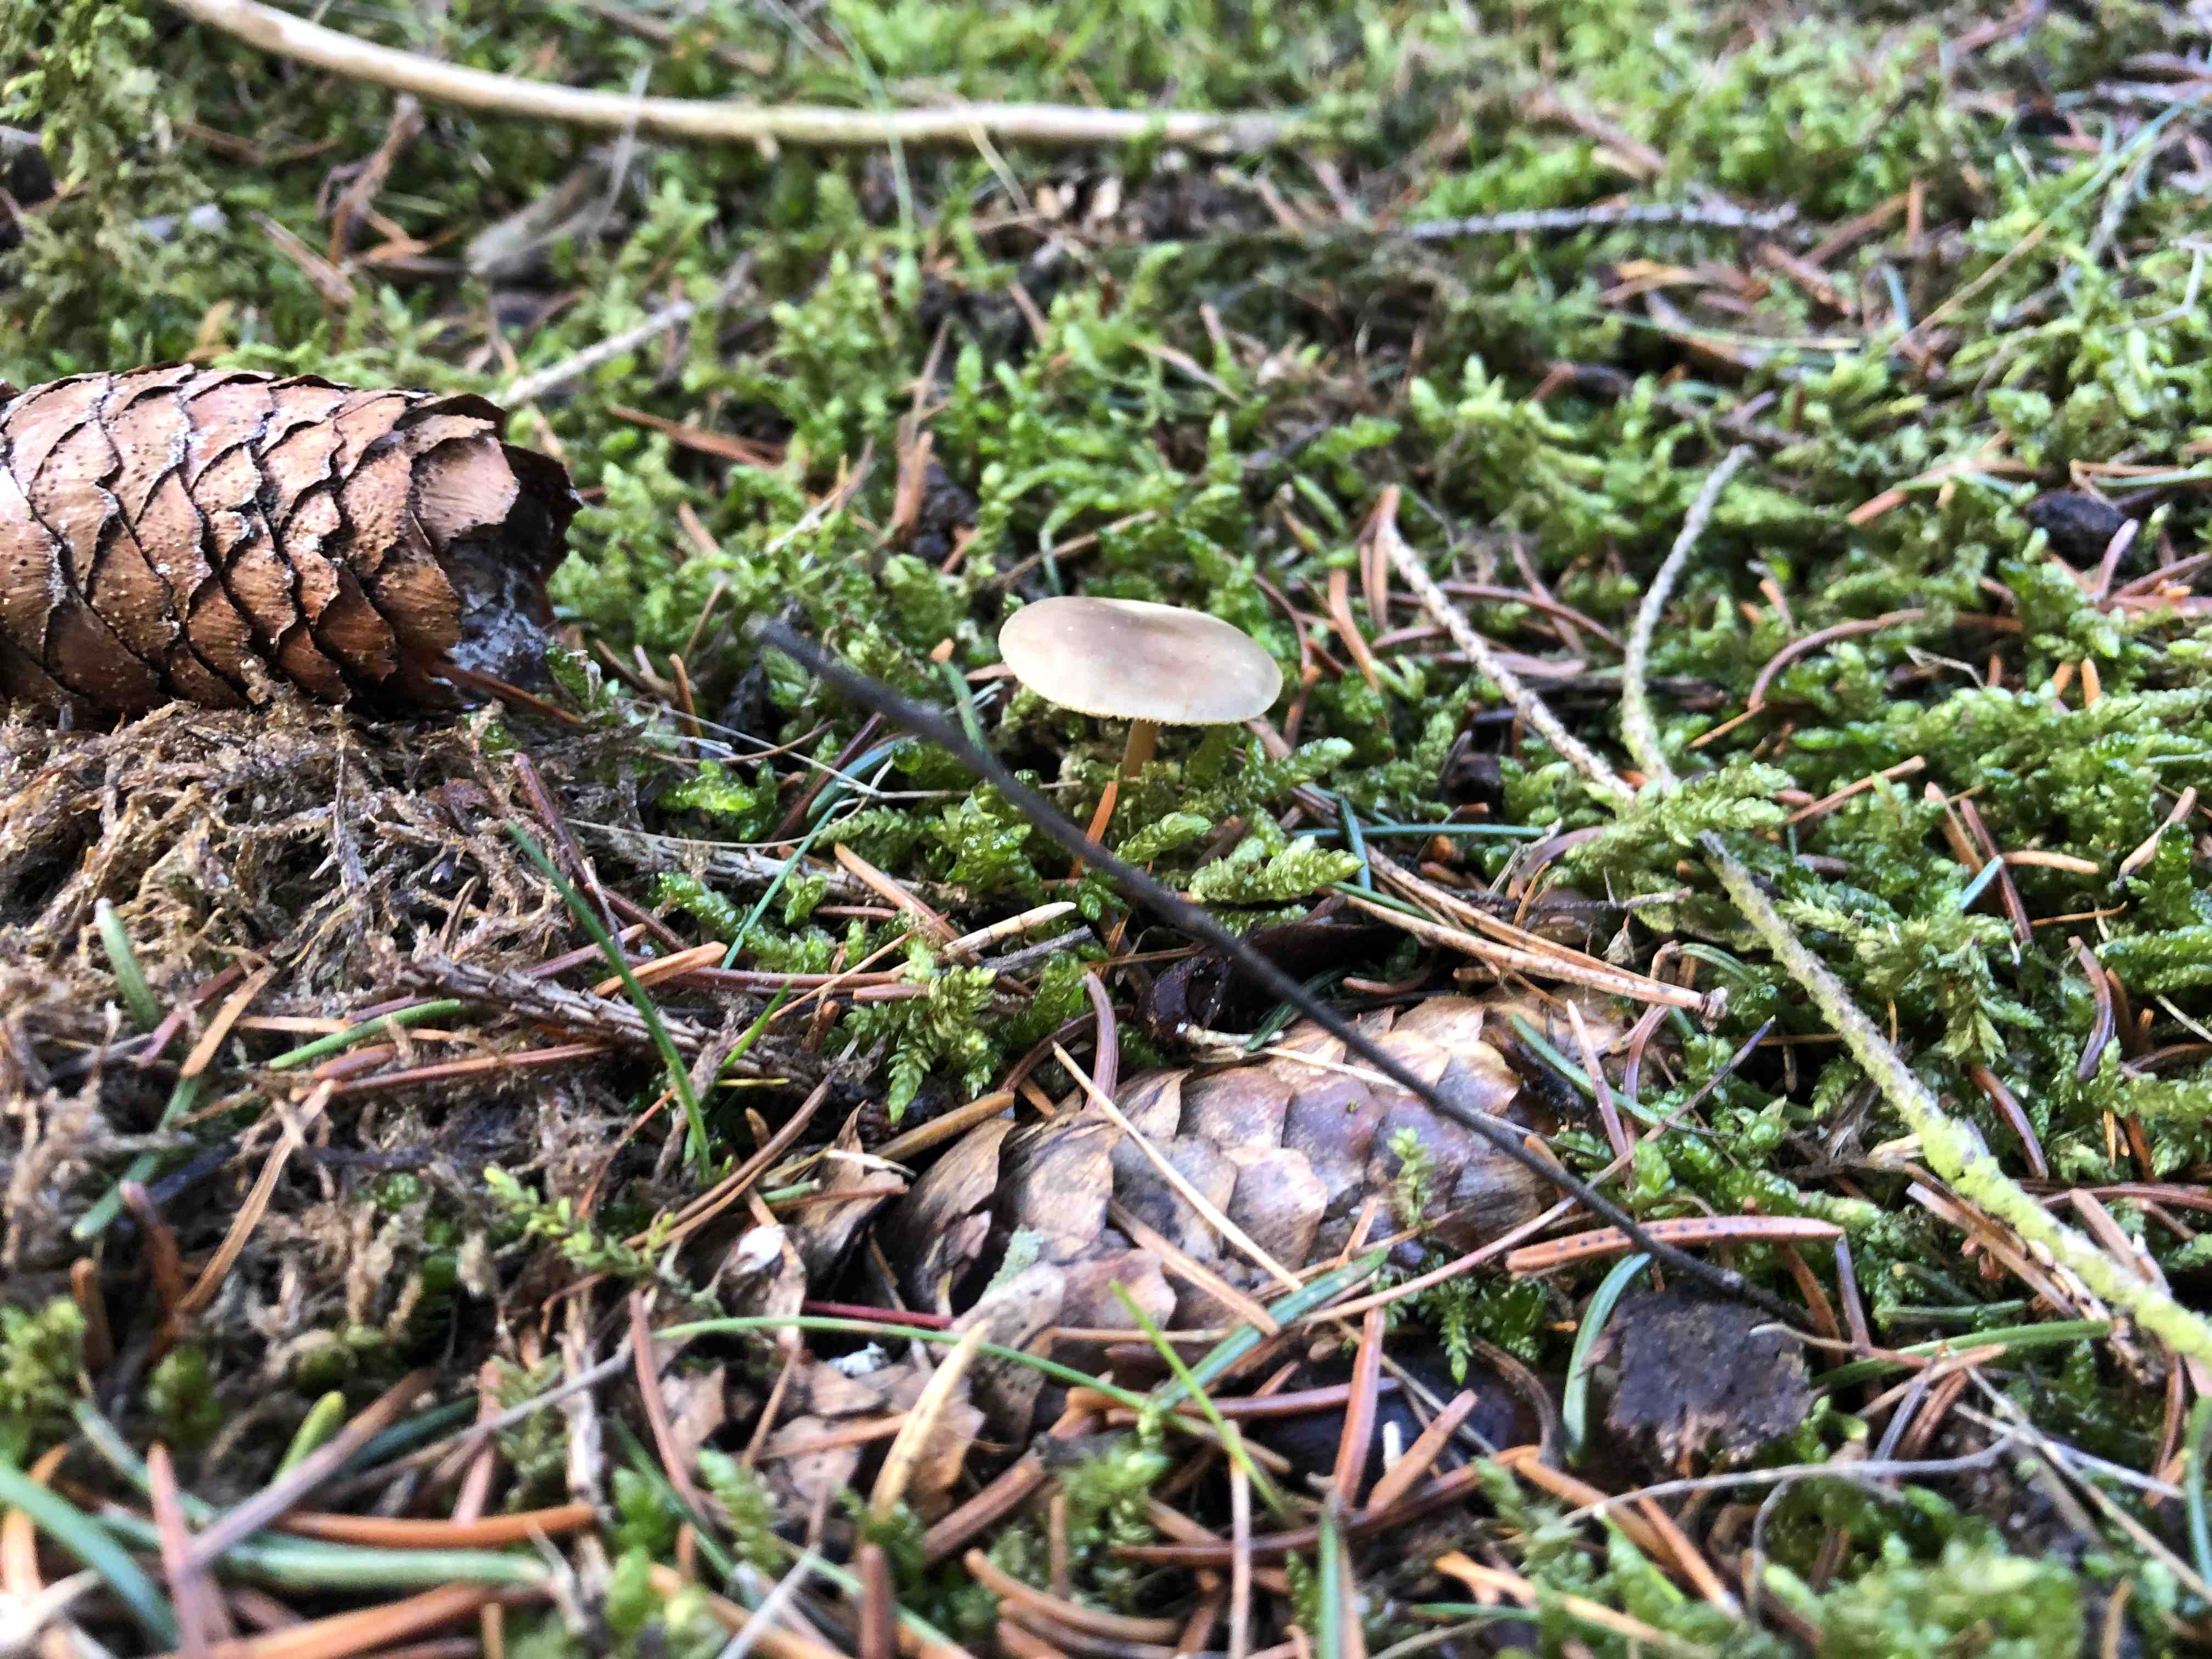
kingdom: Fungi
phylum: Basidiomycota
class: Agaricomycetes
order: Agaricales
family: Physalacriaceae
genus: Strobilurus
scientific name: Strobilurus esculentus
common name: gran-koglehat
